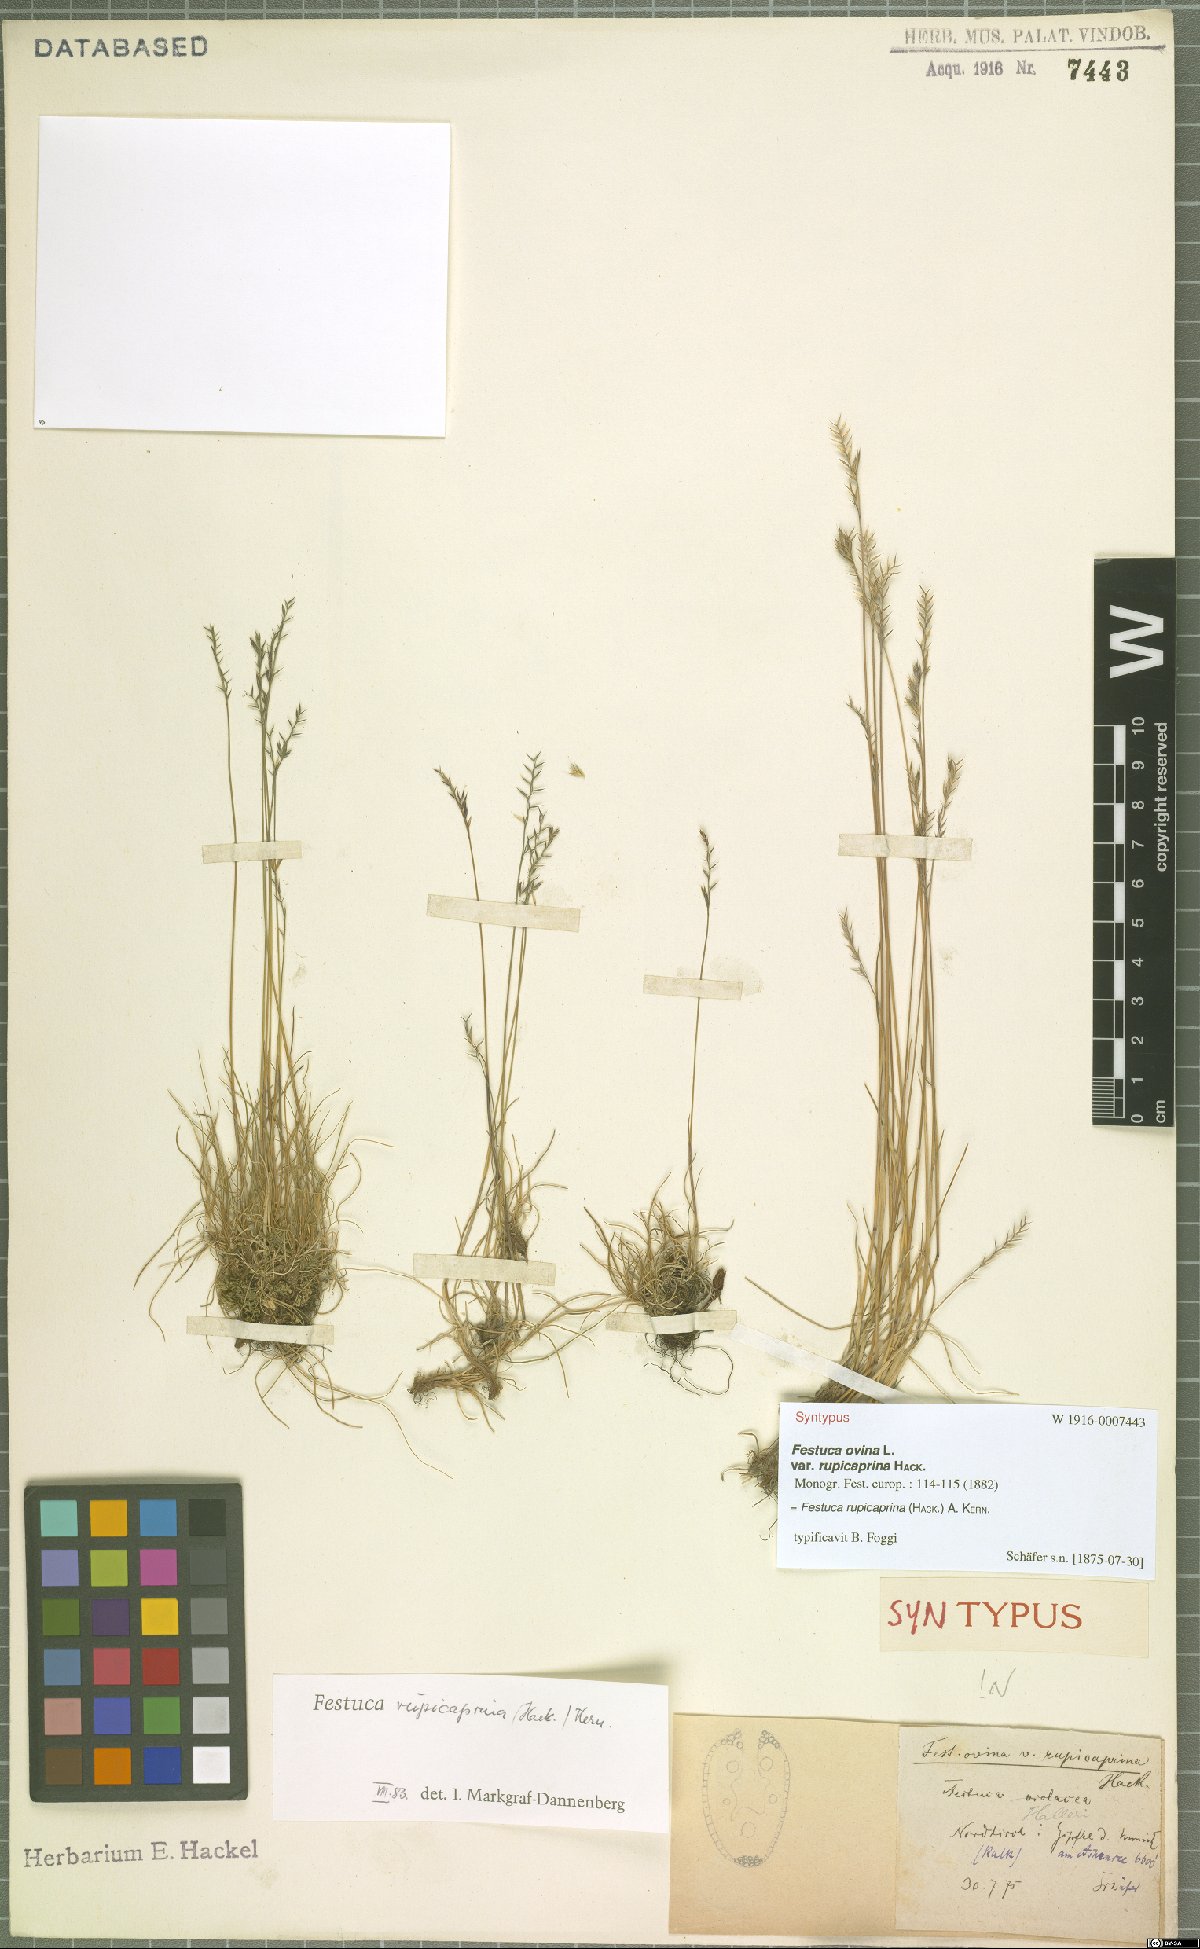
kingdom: Plantae
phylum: Tracheophyta
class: Liliopsida
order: Poales
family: Poaceae
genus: Festuca
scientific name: Festuca rupicaprina
